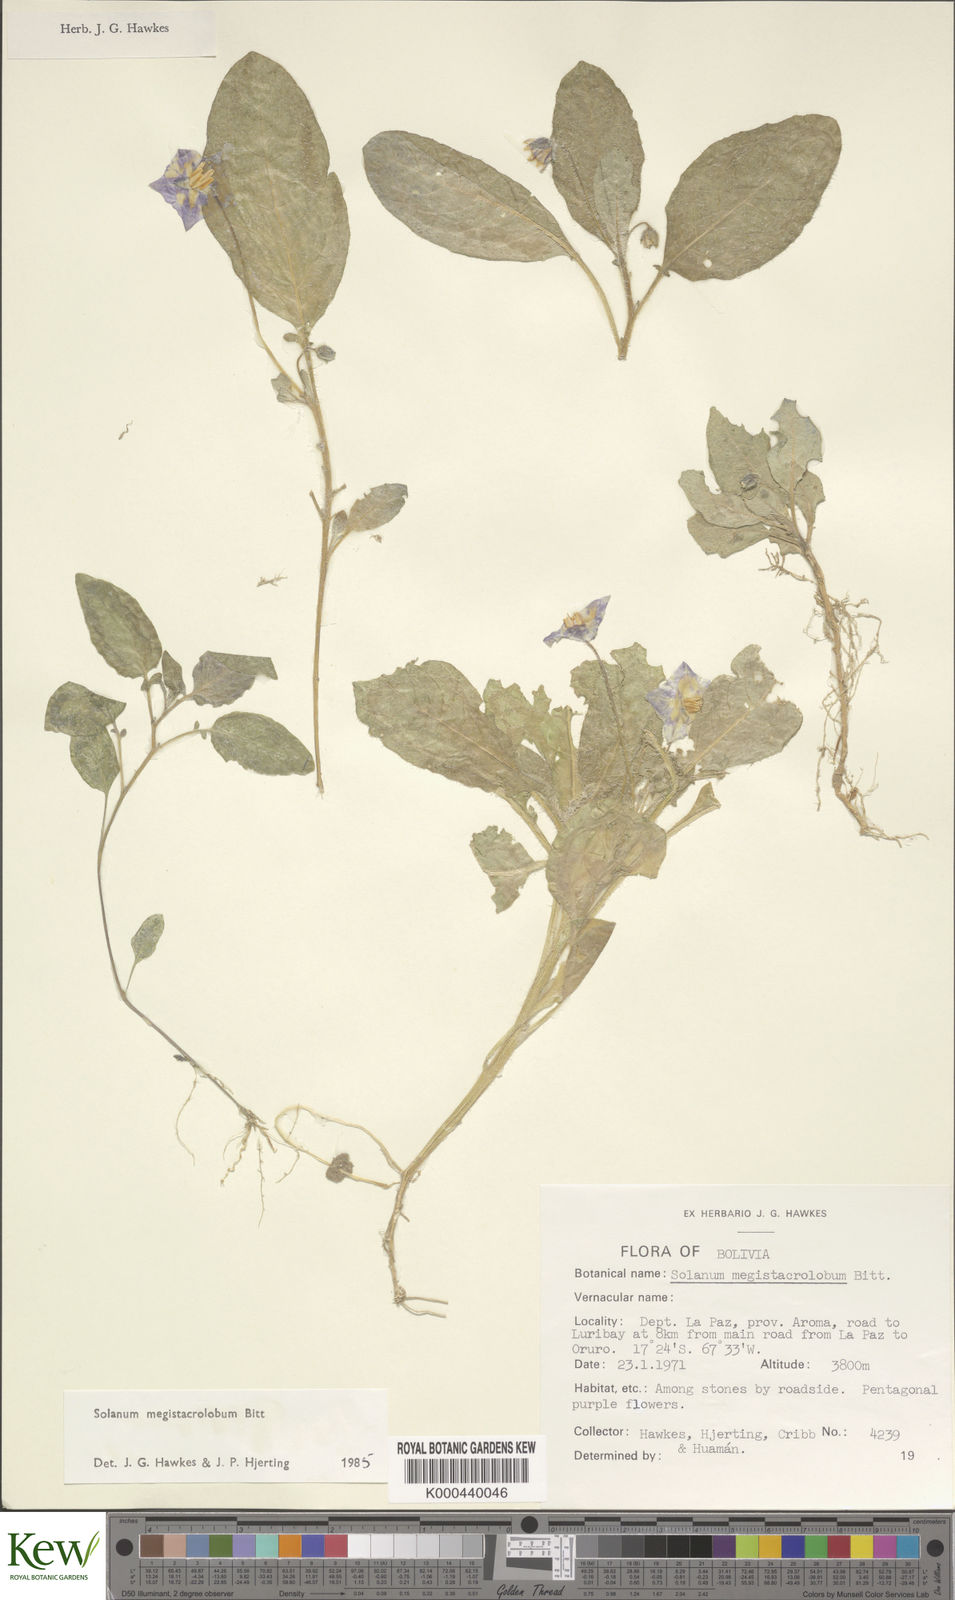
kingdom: Plantae
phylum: Tracheophyta
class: Magnoliopsida
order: Solanales
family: Solanaceae
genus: Solanum
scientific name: Solanum boliviense
